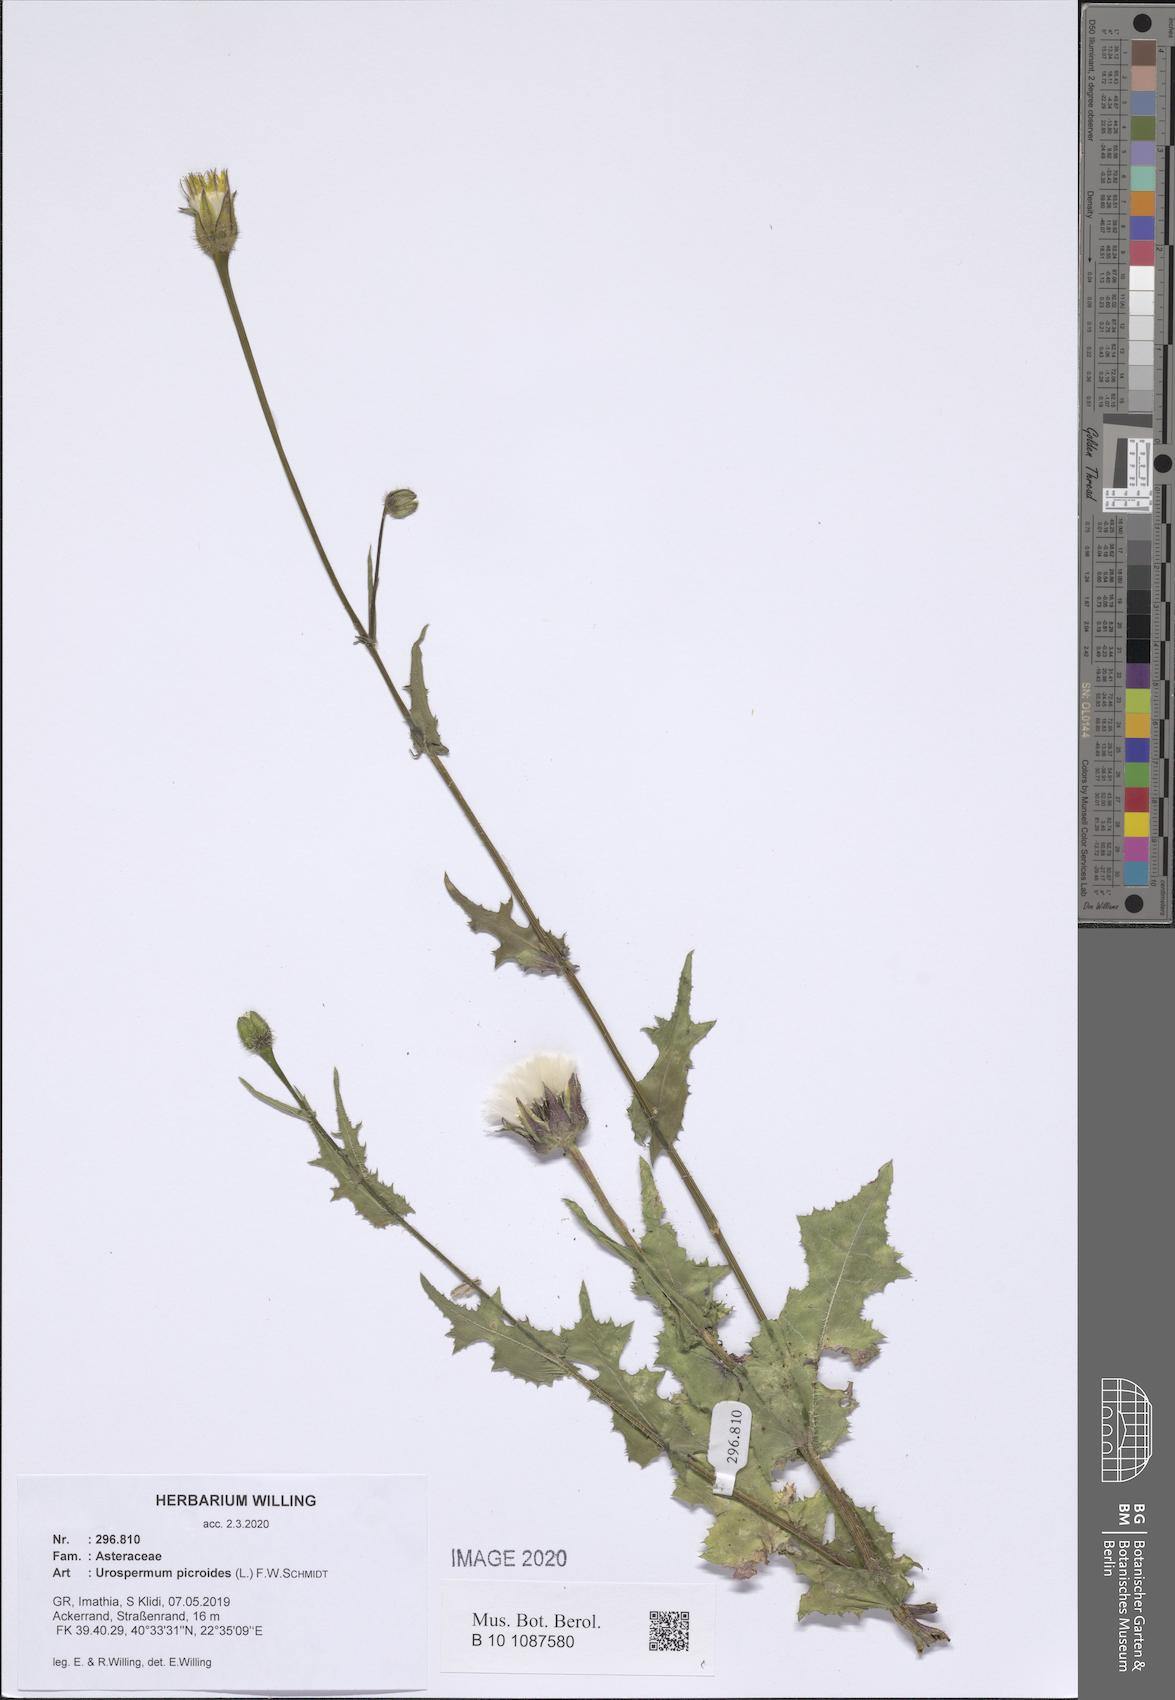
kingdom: Plantae
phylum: Tracheophyta
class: Magnoliopsida
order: Asterales
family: Asteraceae
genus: Urospermum
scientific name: Urospermum picroides
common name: False hawkbit
